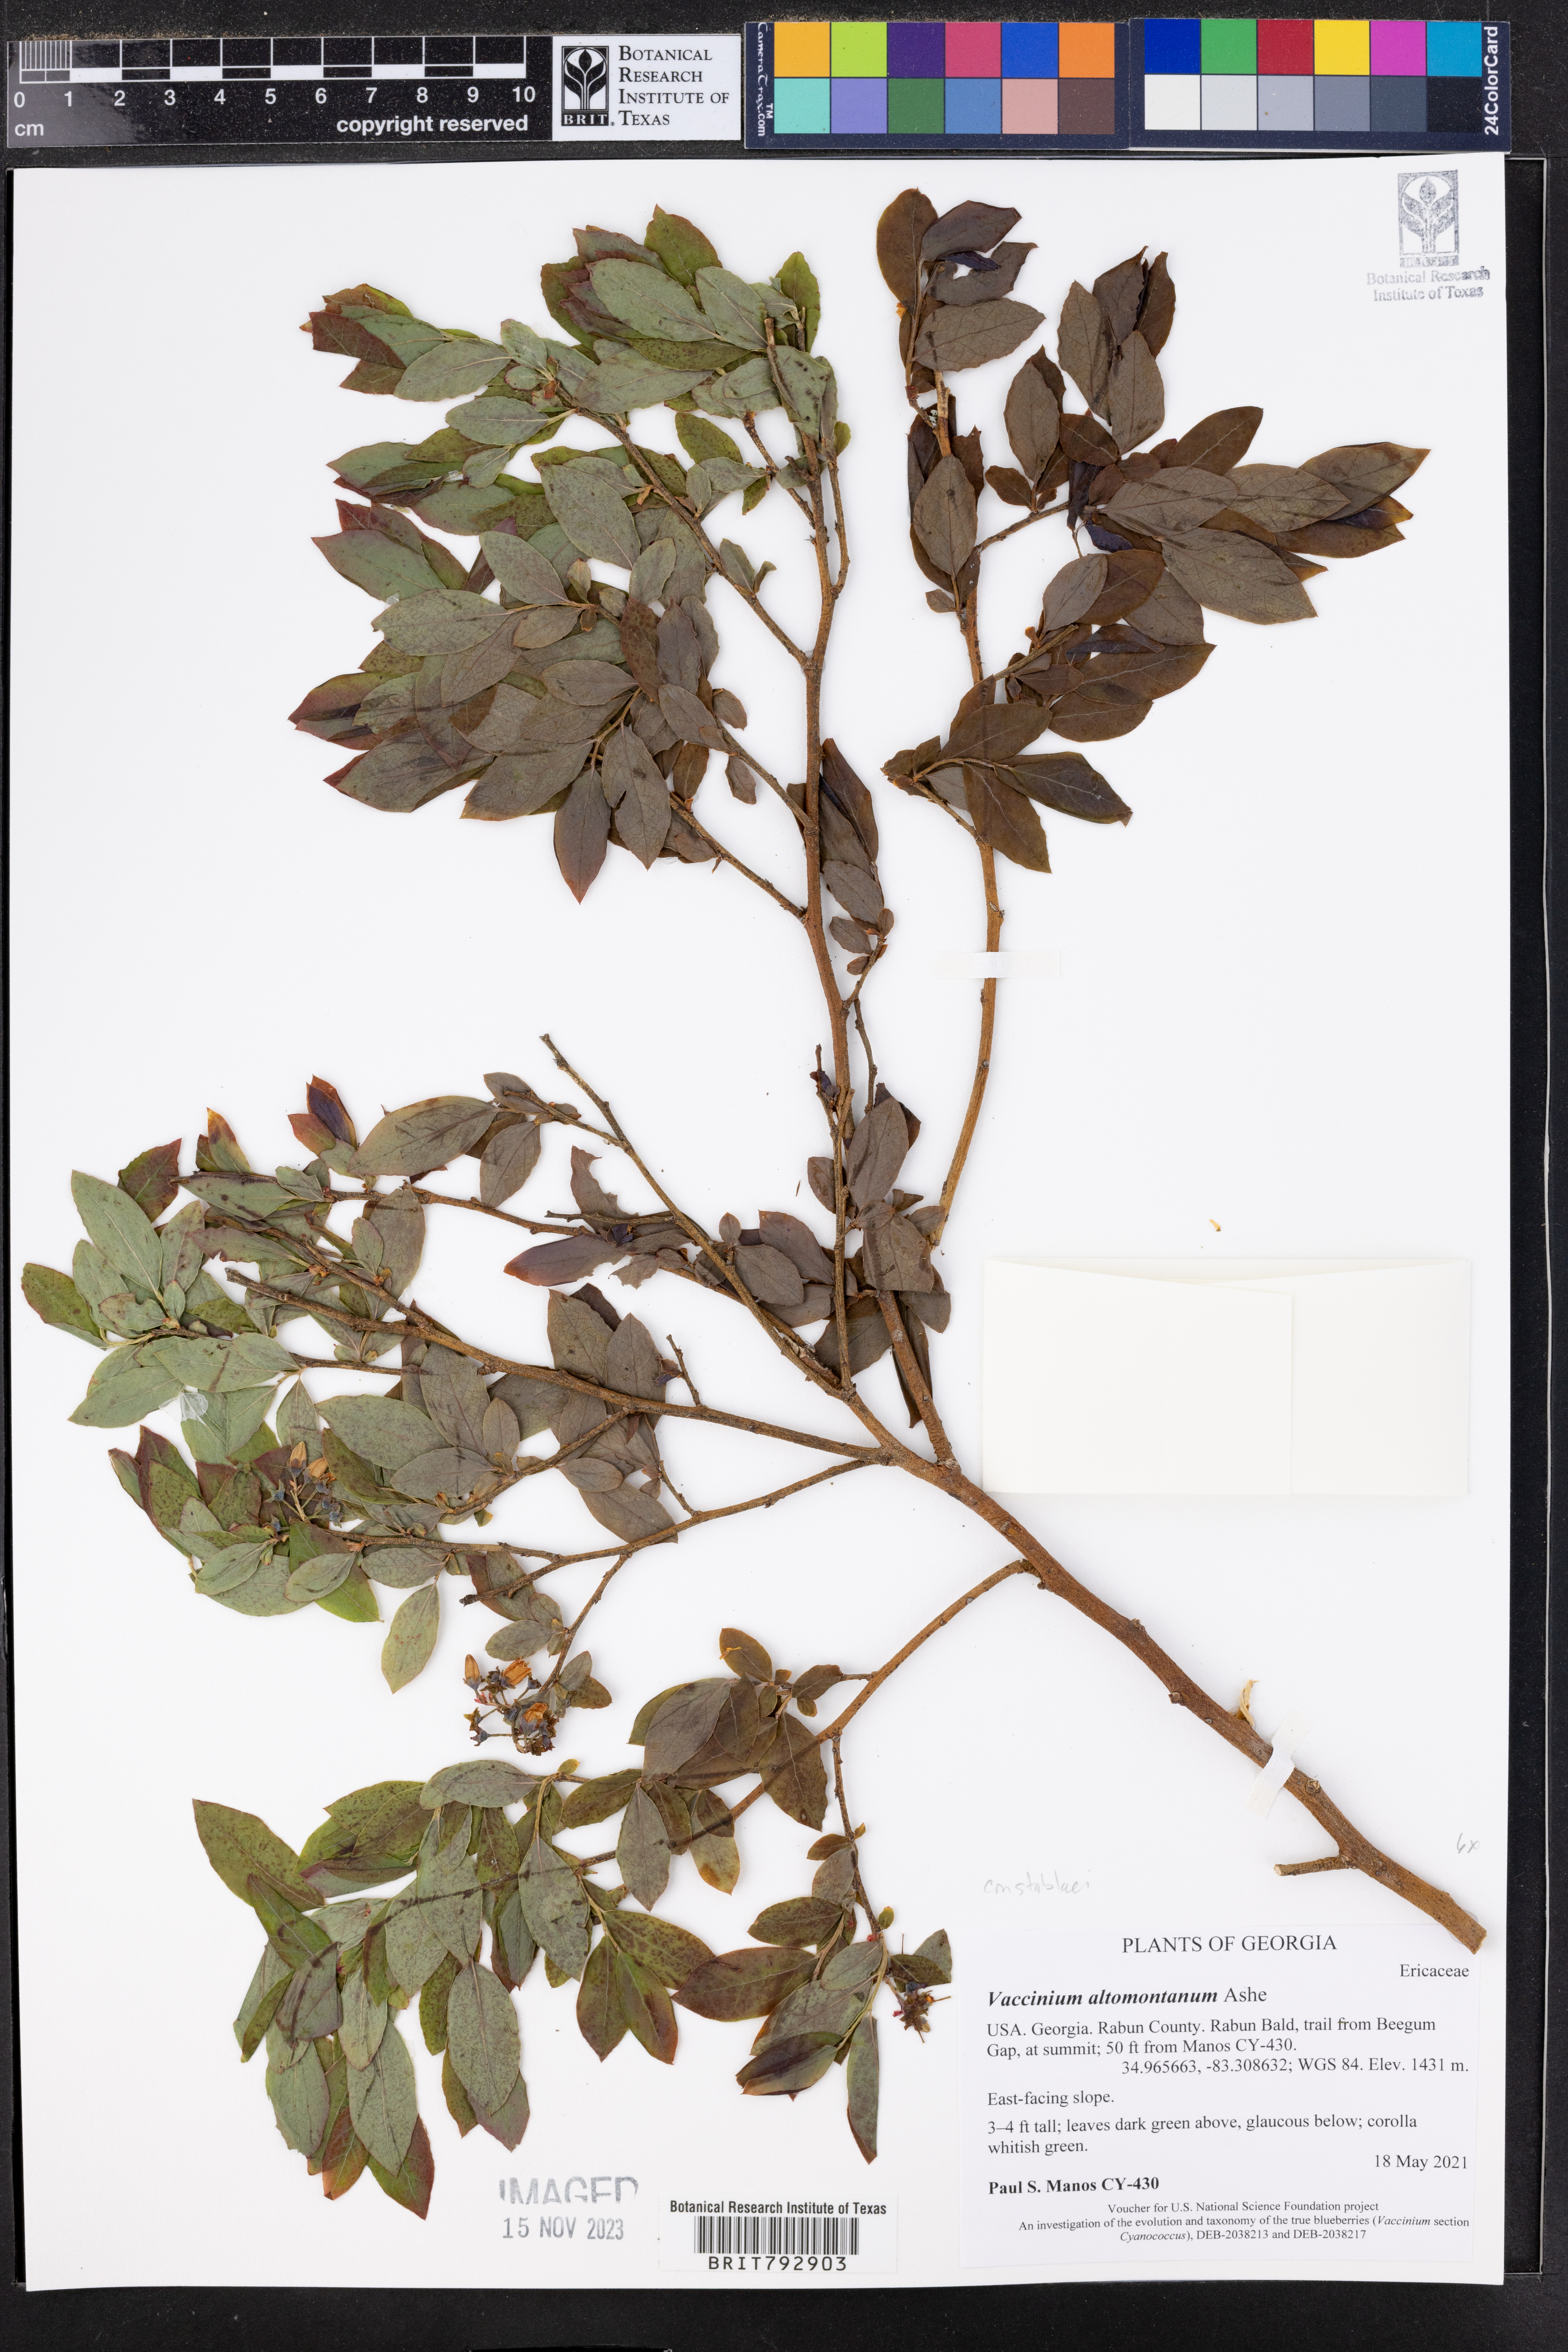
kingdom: Plantae
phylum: Tracheophyta
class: Magnoliopsida
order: Ericales
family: Ericaceae
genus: Vaccinium
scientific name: Vaccinium pallidum
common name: Blue ridge blueberry
